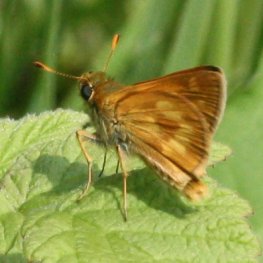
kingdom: Animalia
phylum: Arthropoda
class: Insecta
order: Lepidoptera
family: Hesperiidae
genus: Polites
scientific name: Polites
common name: Long Dash Skipper
